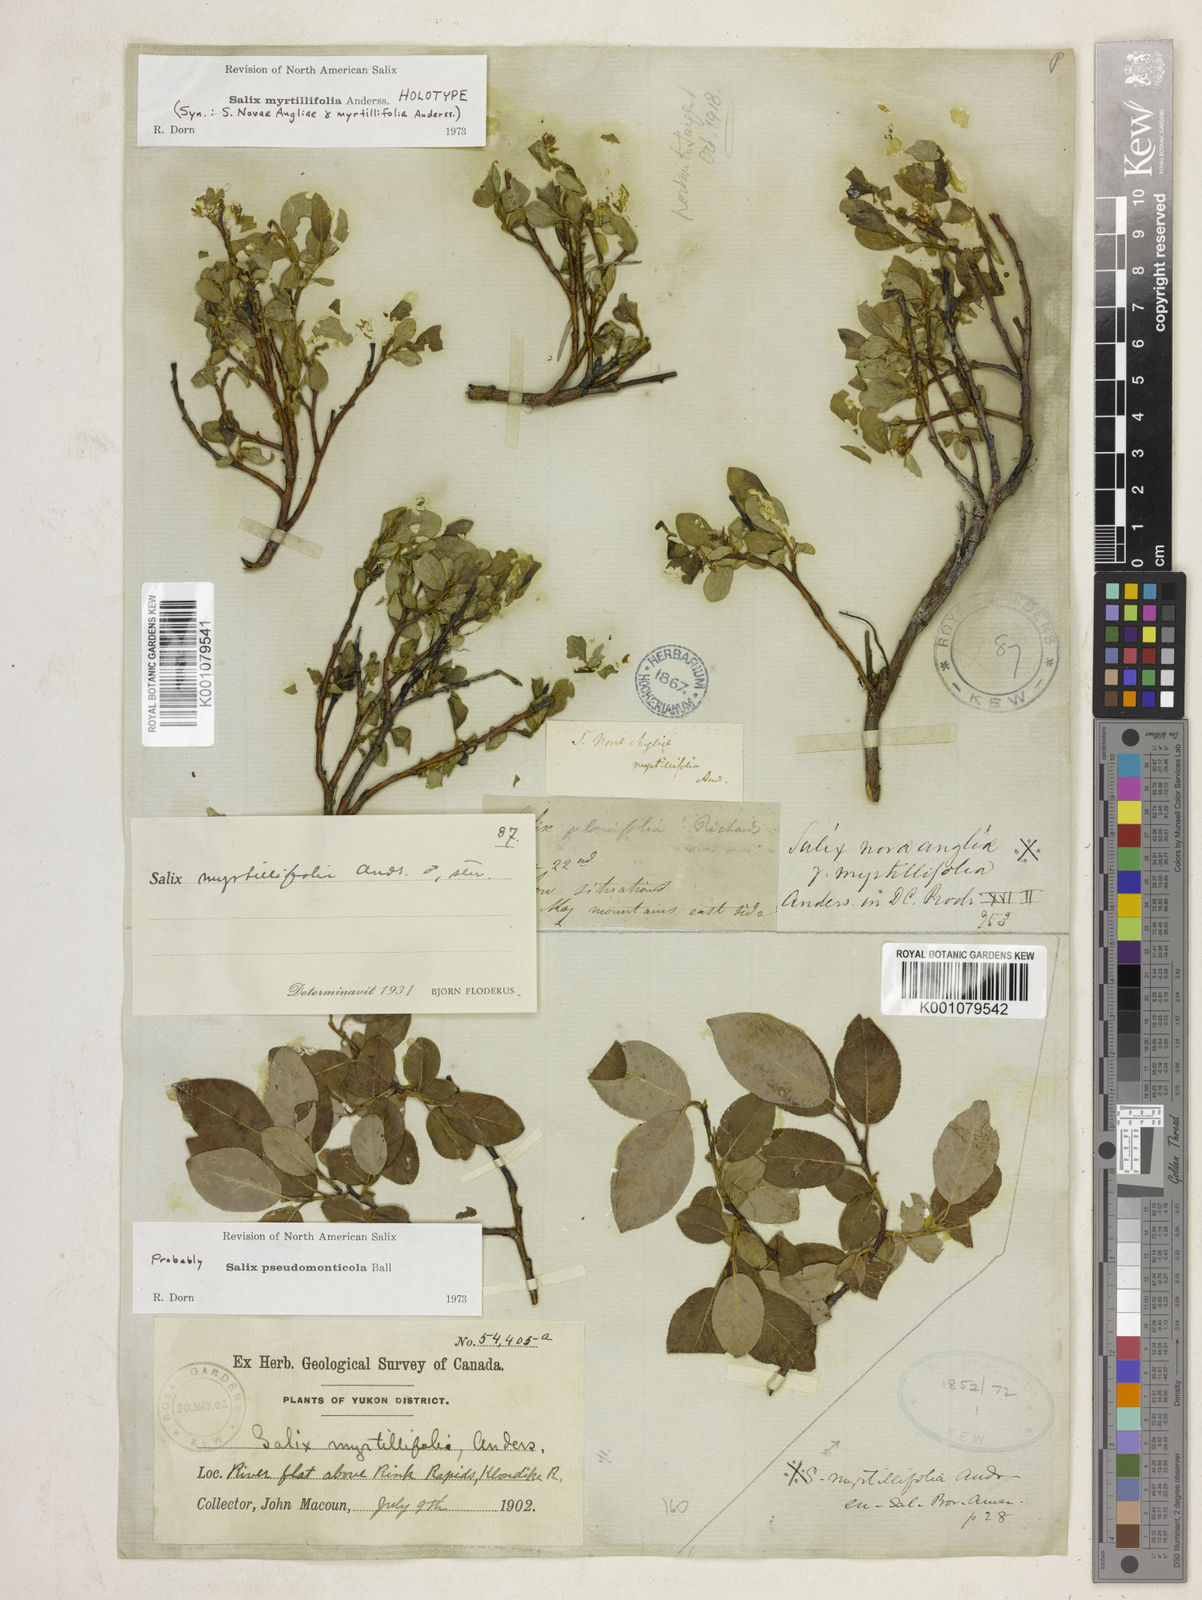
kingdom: Plantae
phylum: Tracheophyta
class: Magnoliopsida
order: Malpighiales
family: Salicaceae
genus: Salix
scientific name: Salix myrtillifolia
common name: Bilberry willow
